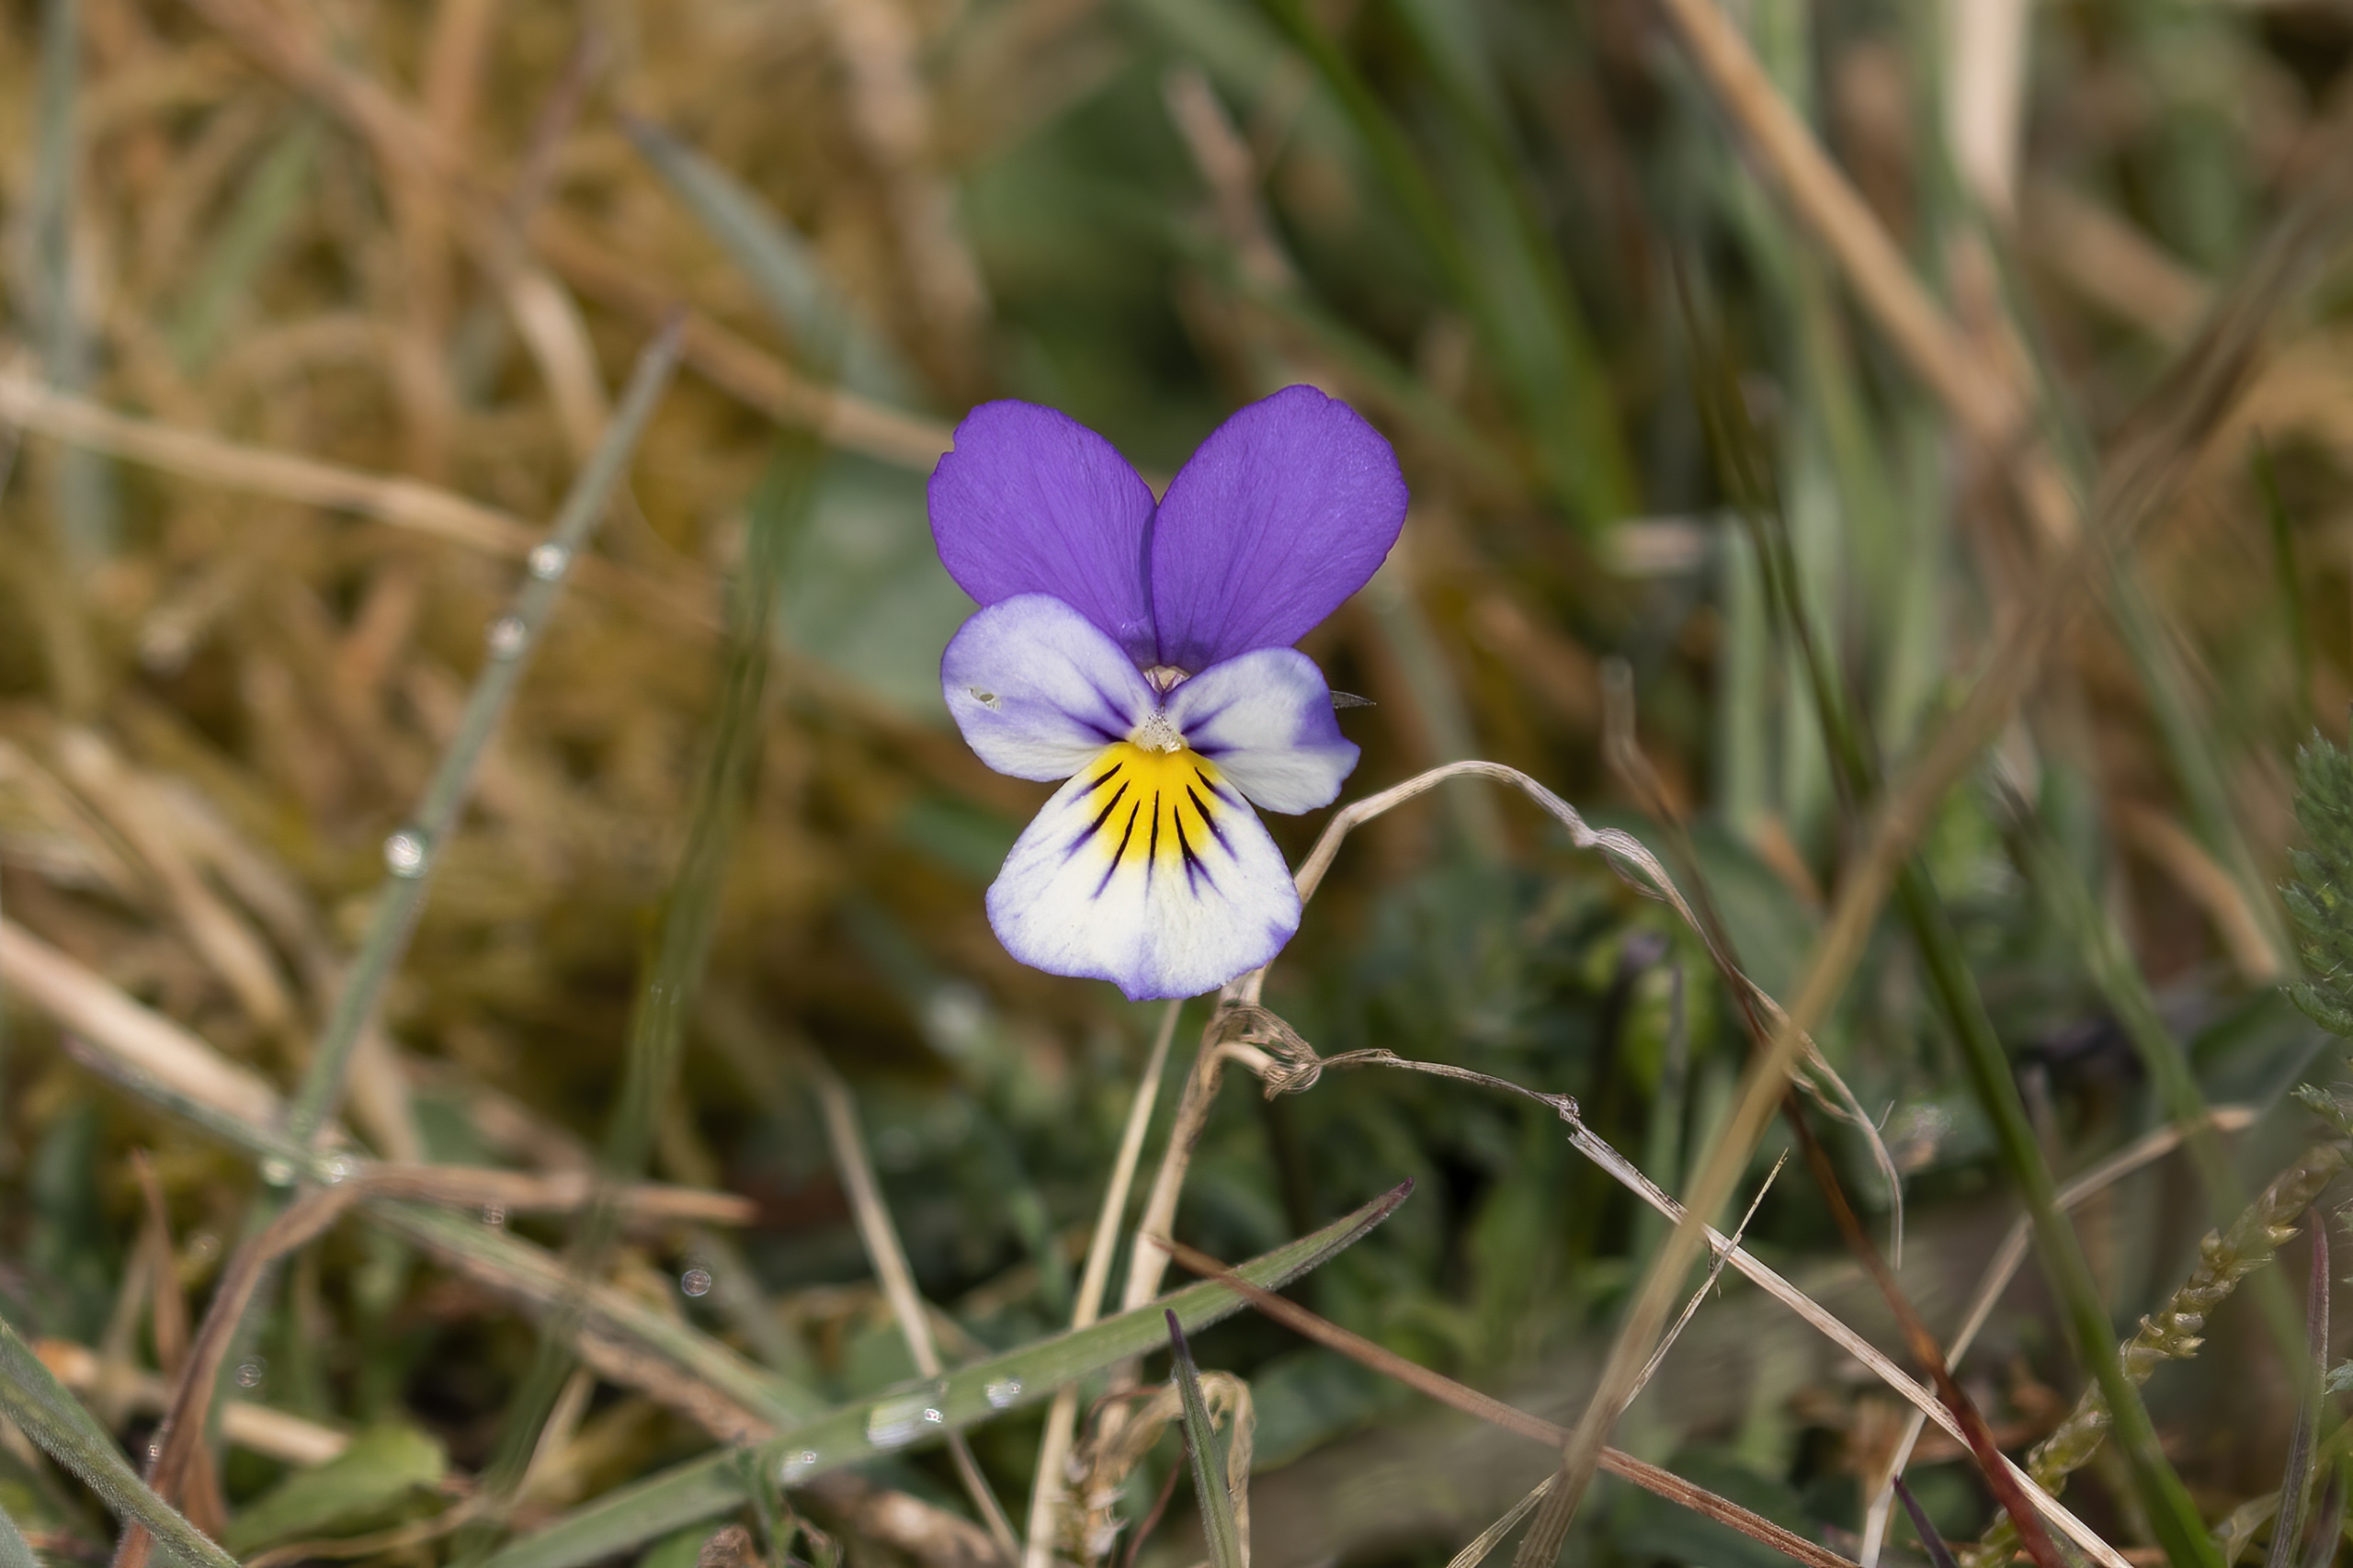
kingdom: Plantae
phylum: Tracheophyta
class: Magnoliopsida
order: Malpighiales
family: Violaceae
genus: Viola
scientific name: Viola tricolor
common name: Stedmoderblomst
